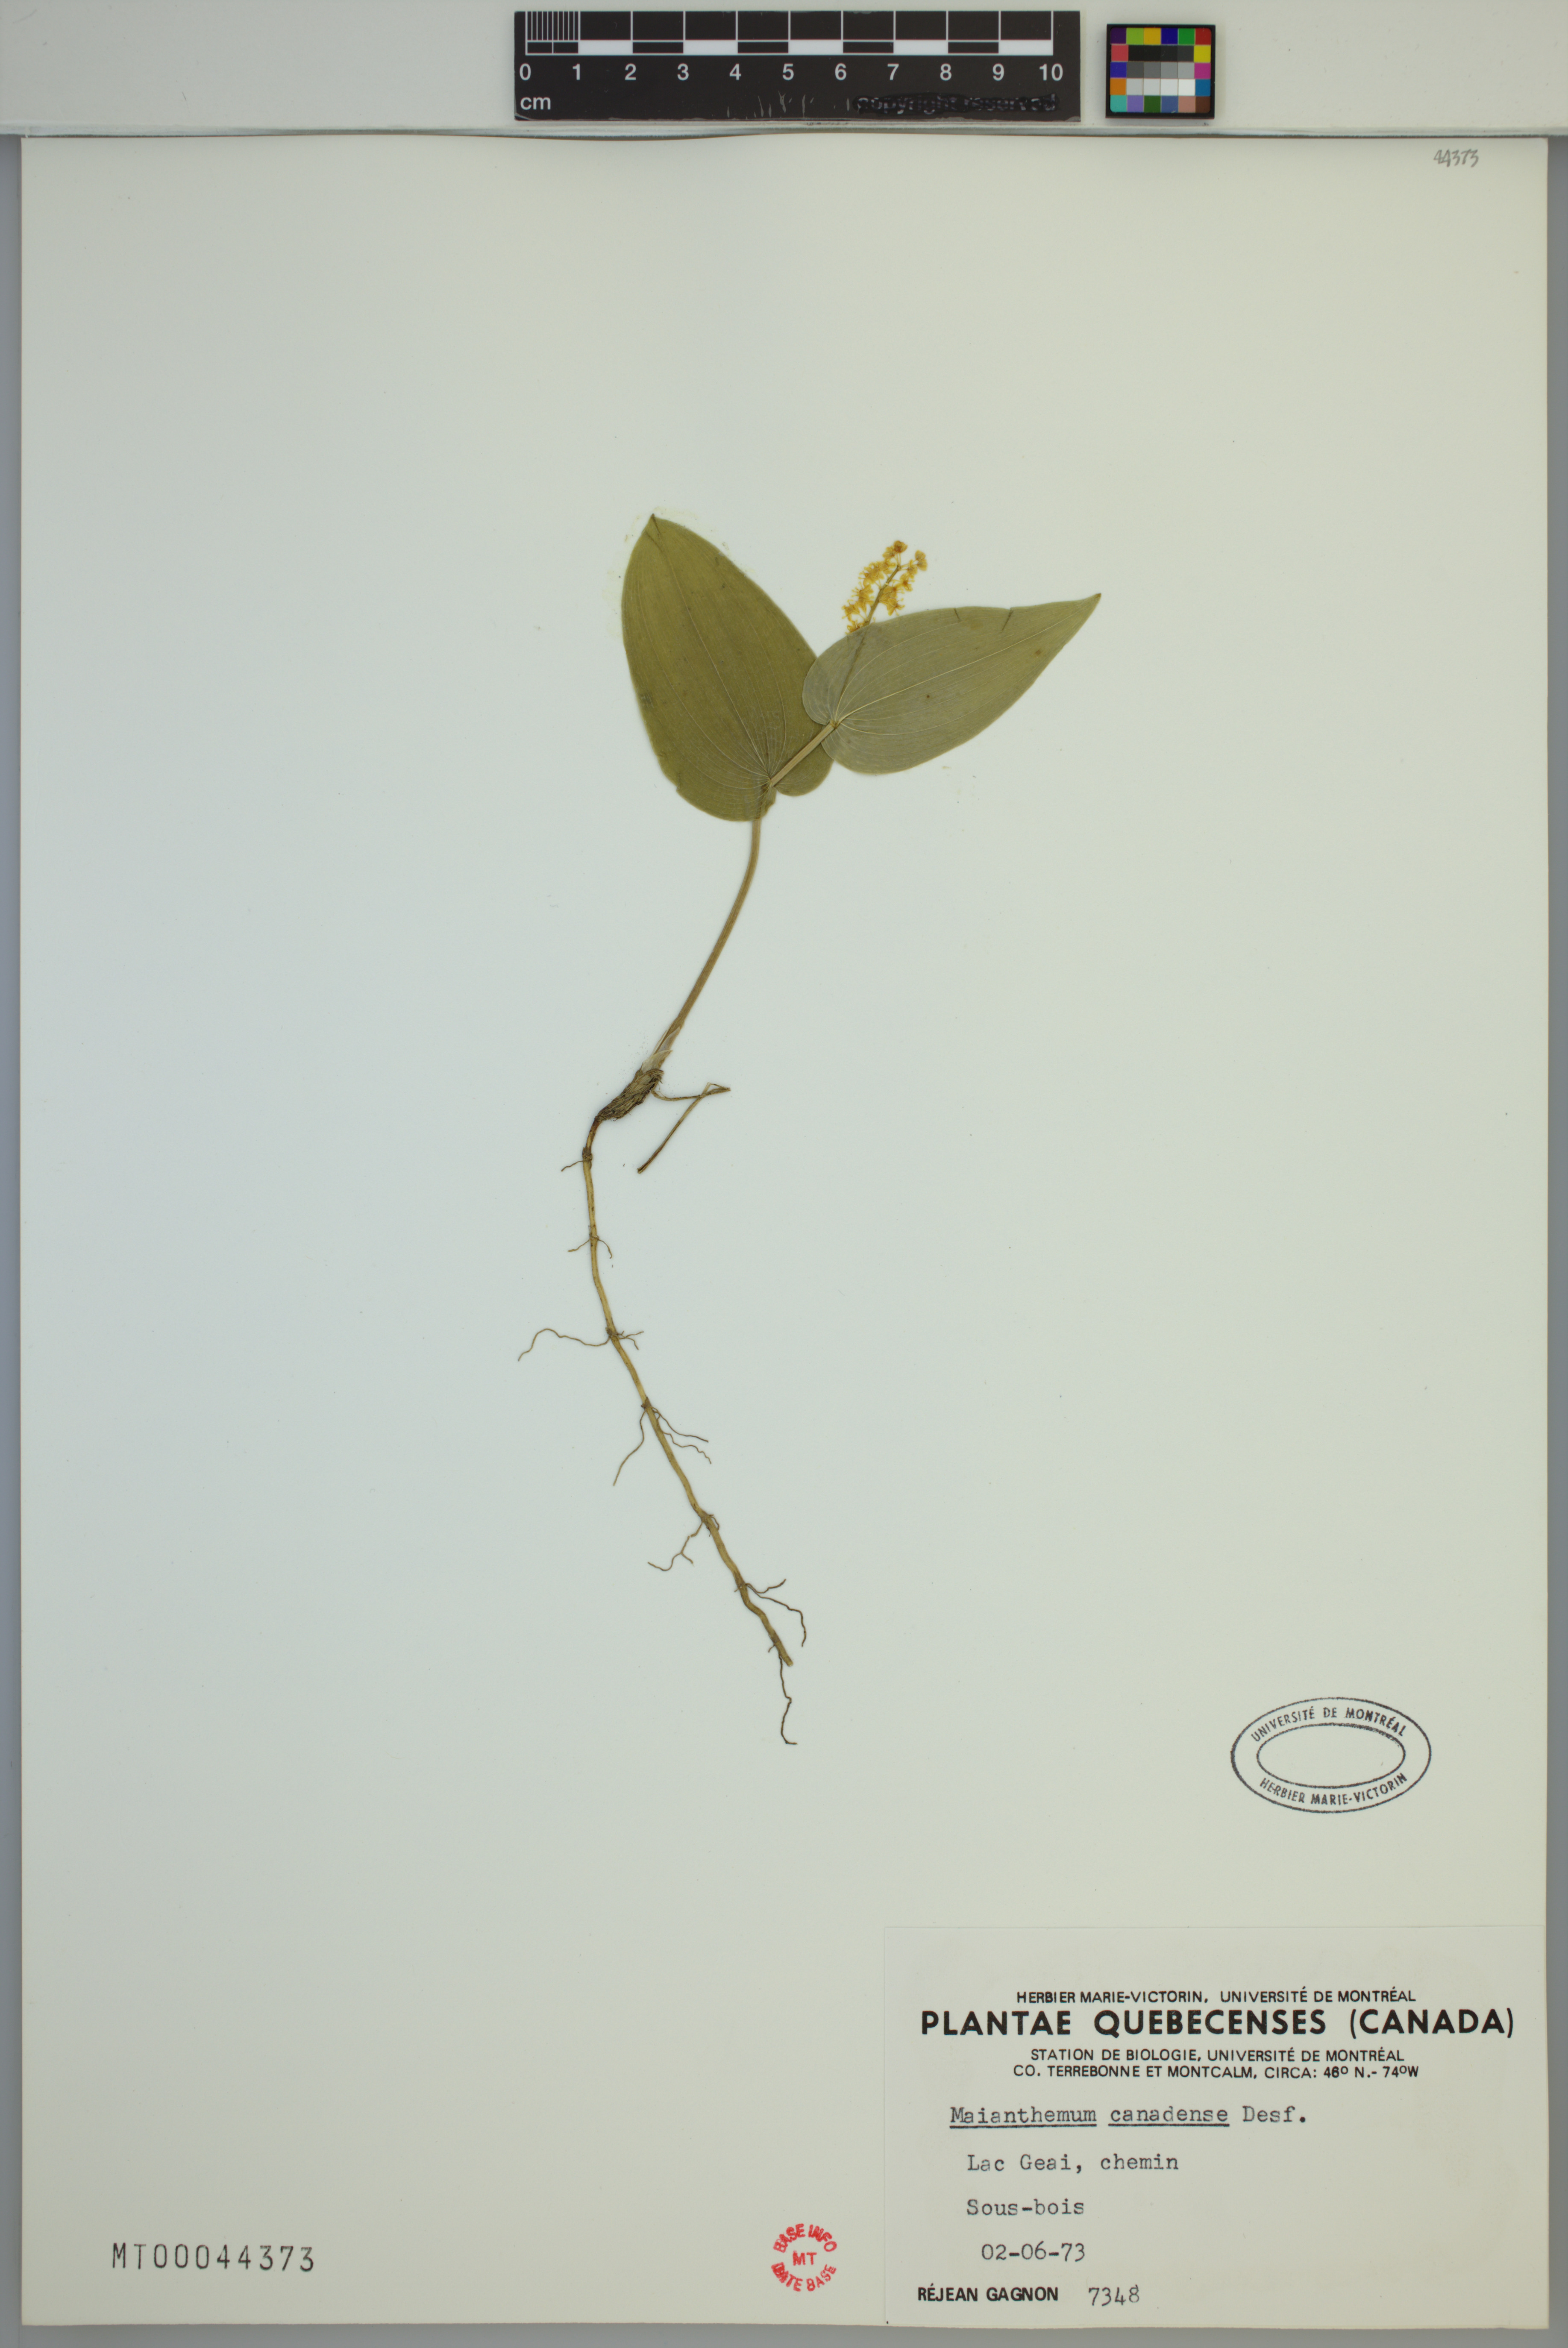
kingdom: Plantae
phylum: Tracheophyta
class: Liliopsida
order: Asparagales
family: Asparagaceae
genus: Maianthemum
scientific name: Maianthemum canadense
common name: False lily-of-the-valley
